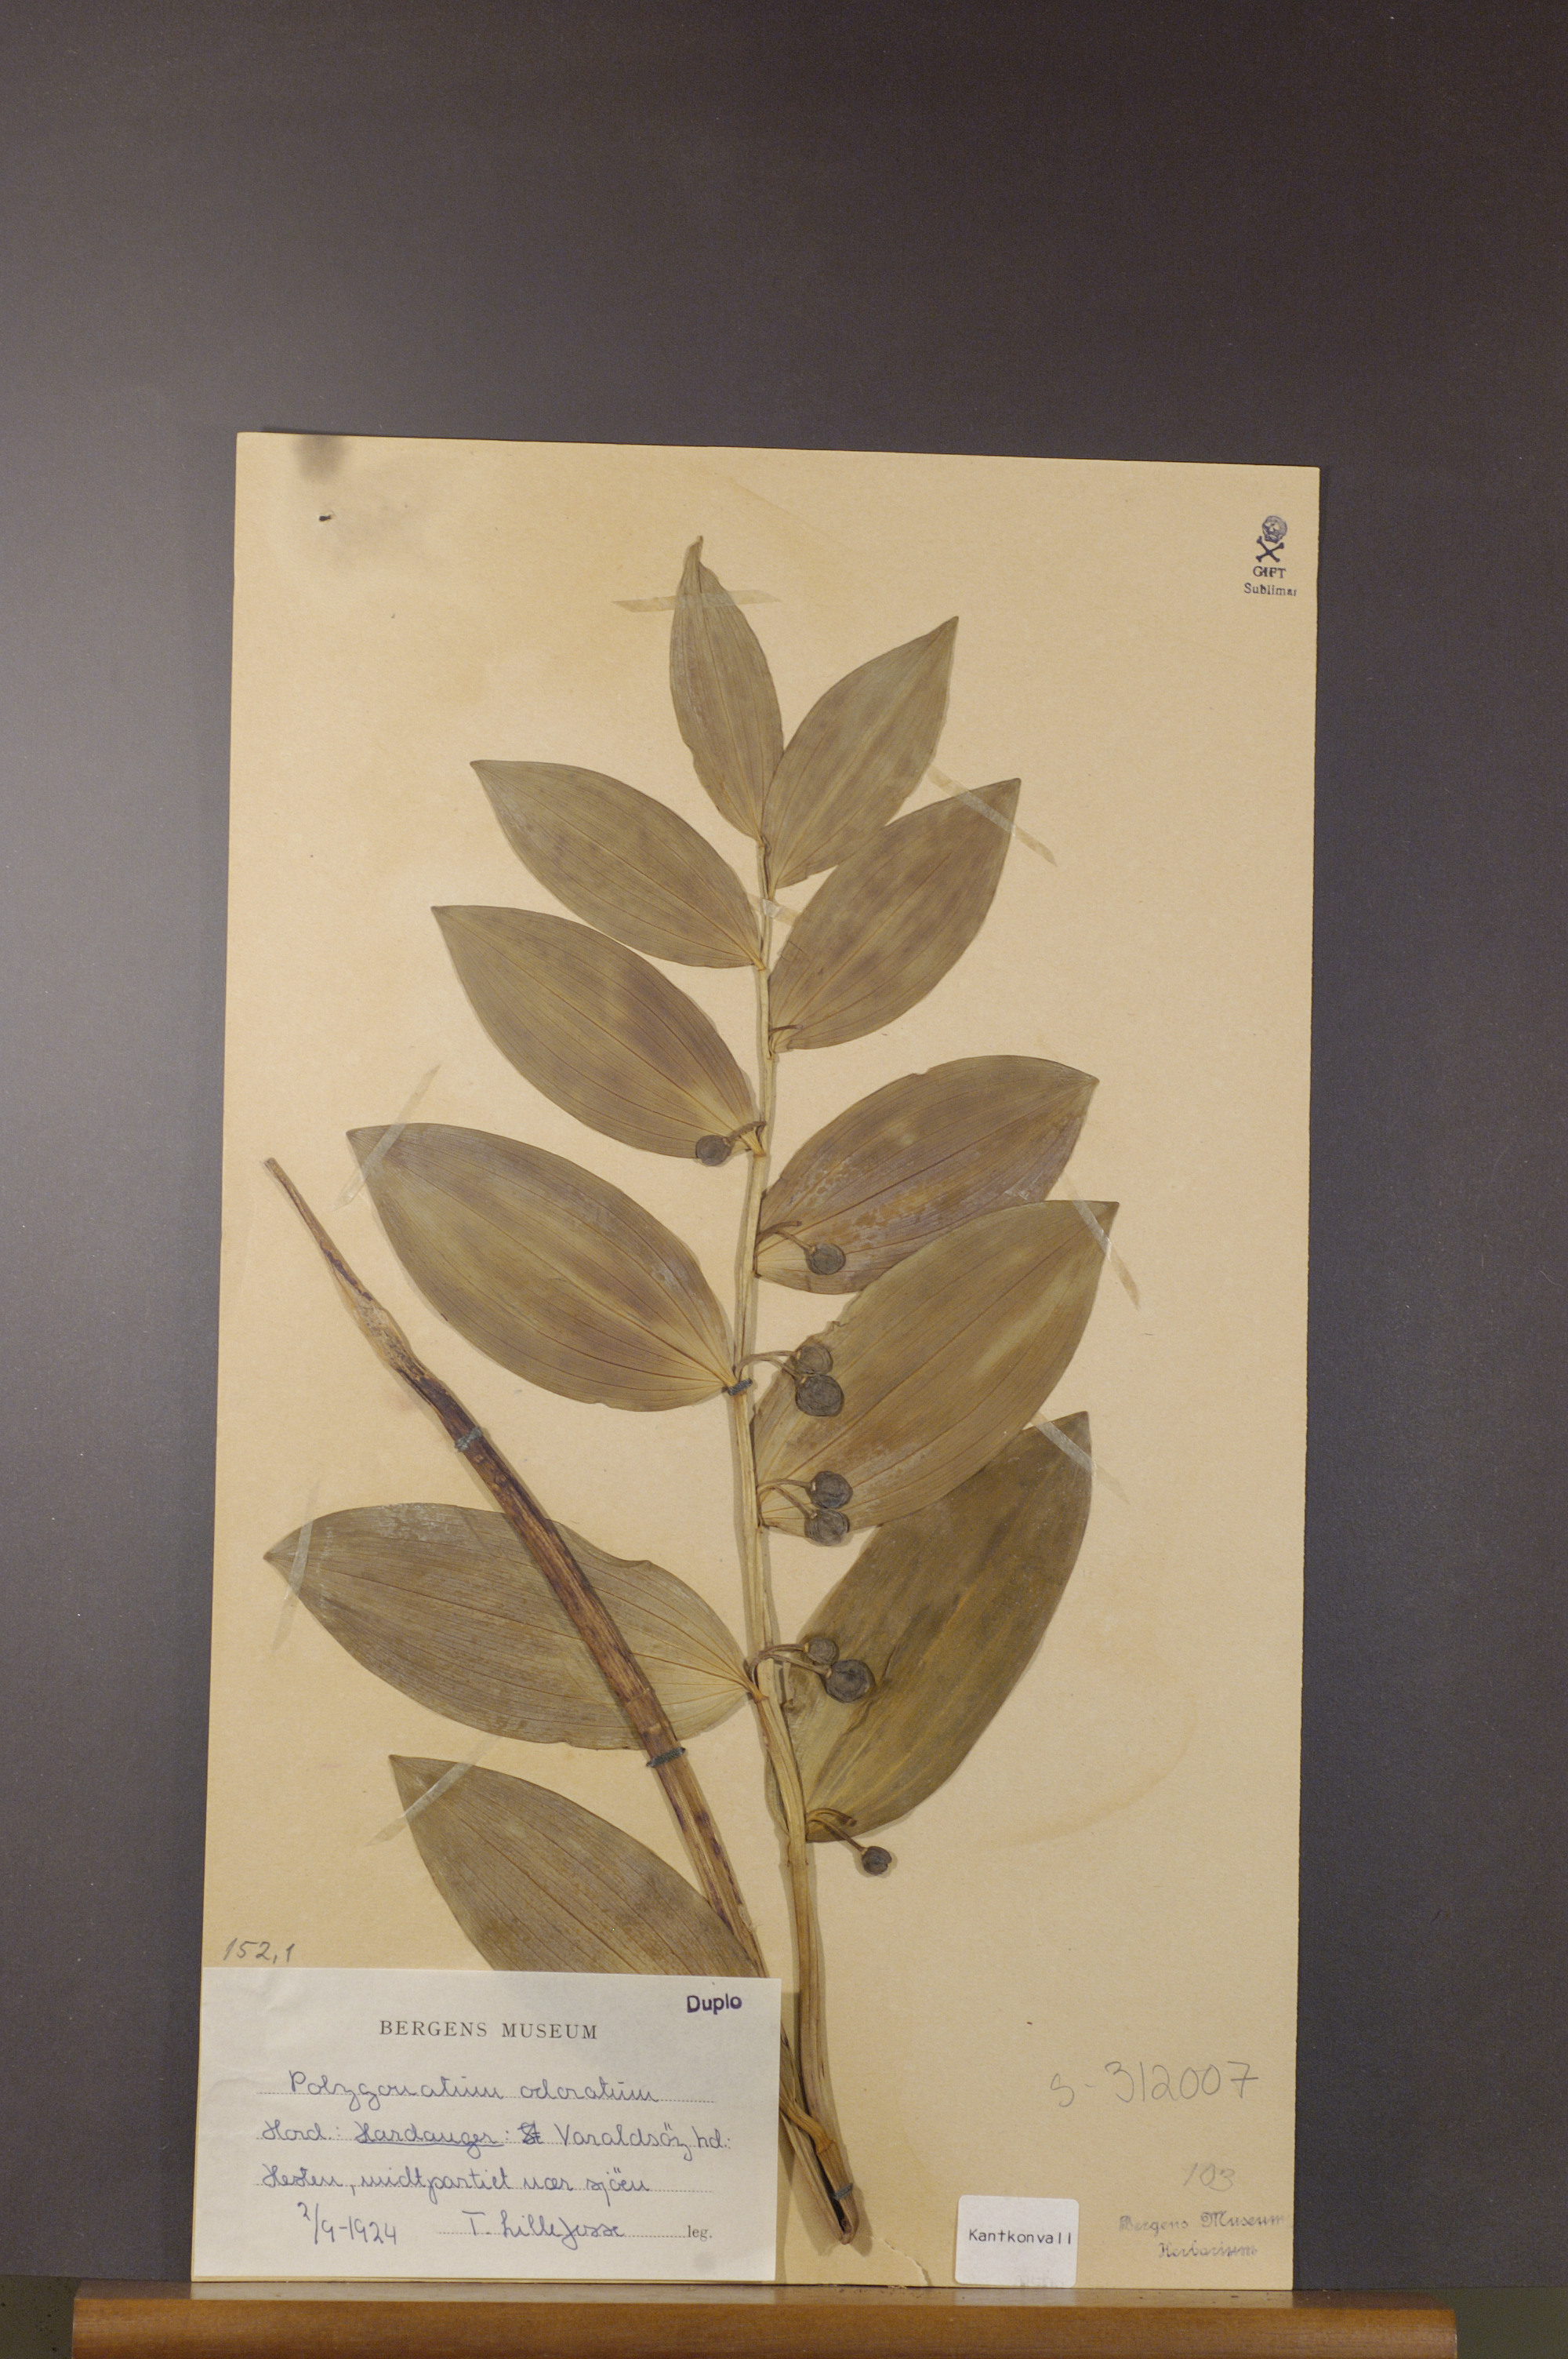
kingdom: Plantae
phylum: Tracheophyta
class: Liliopsida
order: Asparagales
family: Asparagaceae
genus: Polygonatum
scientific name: Polygonatum odoratum
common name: Angular solomon's-seal
